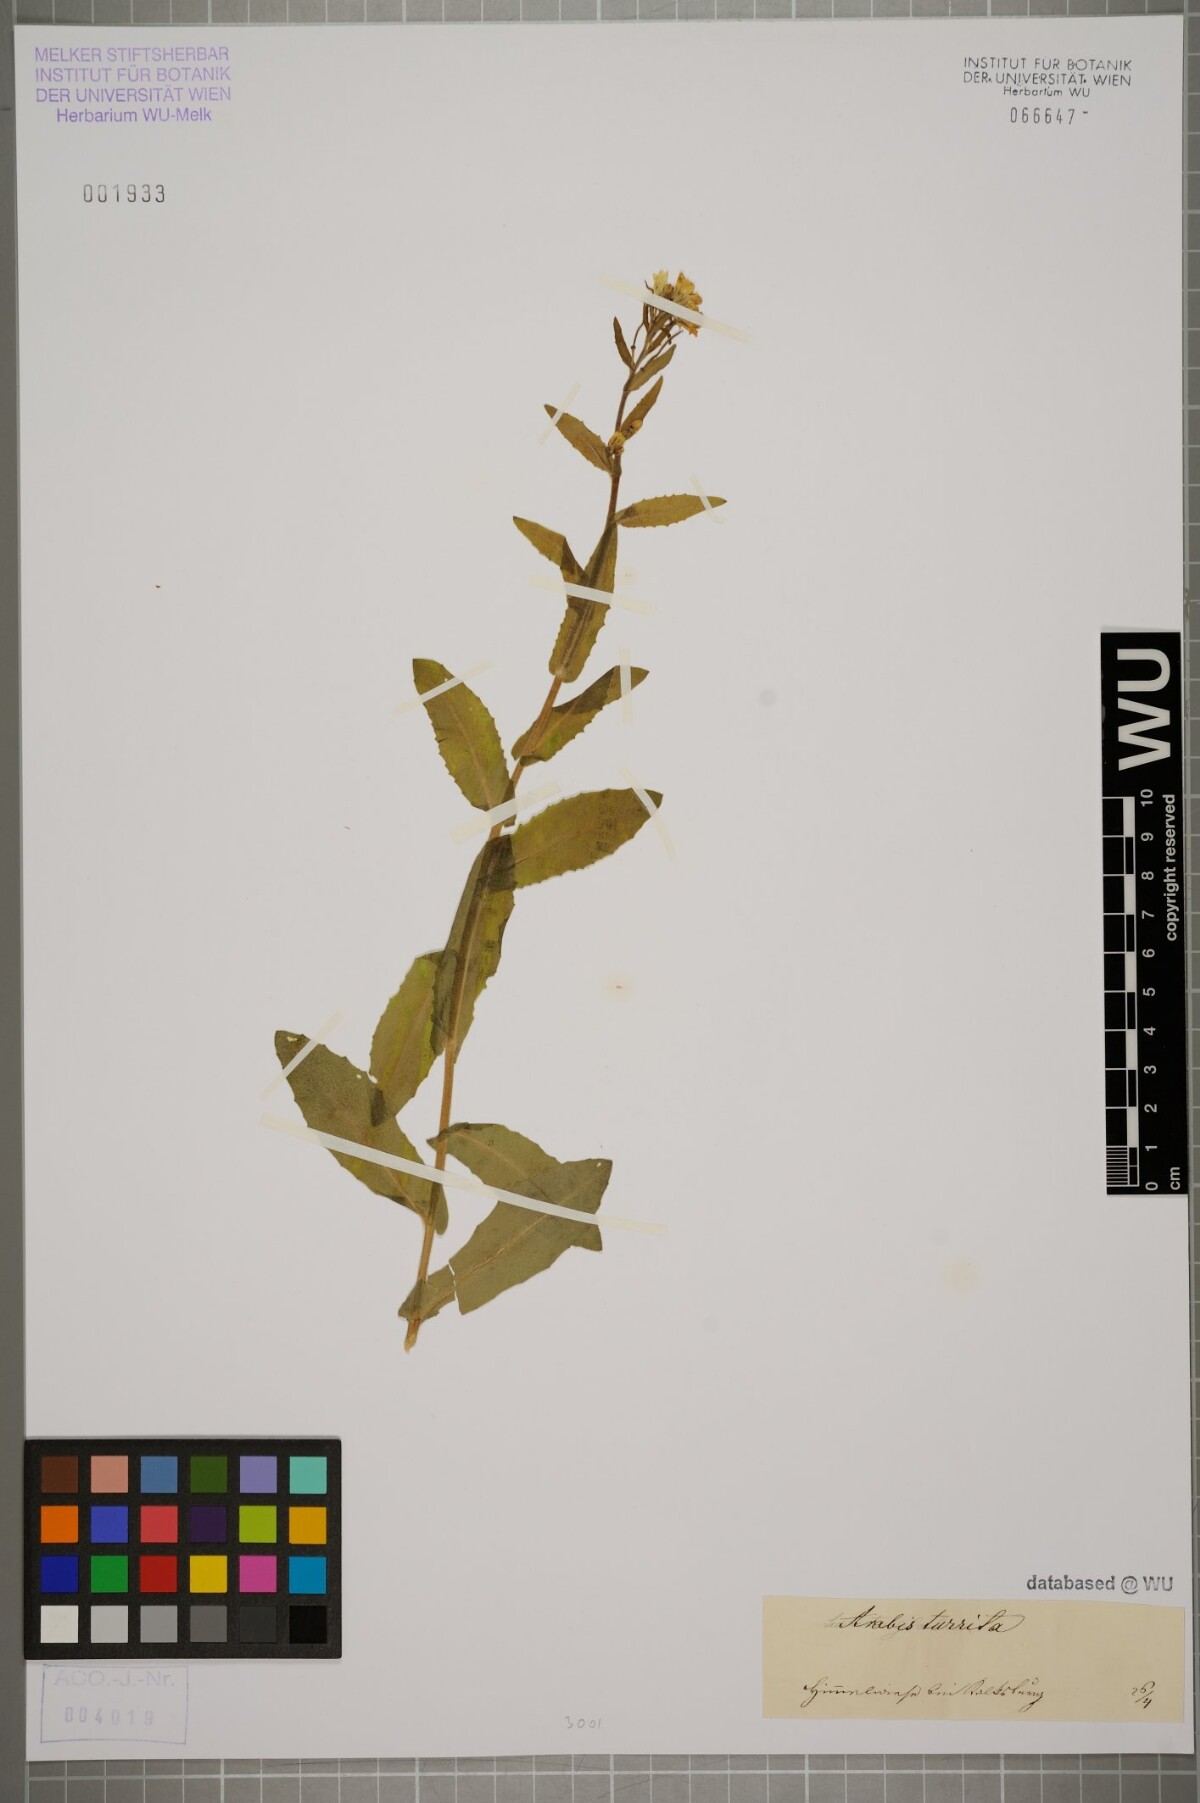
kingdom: Plantae
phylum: Tracheophyta
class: Magnoliopsida
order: Brassicales
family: Brassicaceae
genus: Pseudoturritis
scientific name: Pseudoturritis turrita
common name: Tower cress
